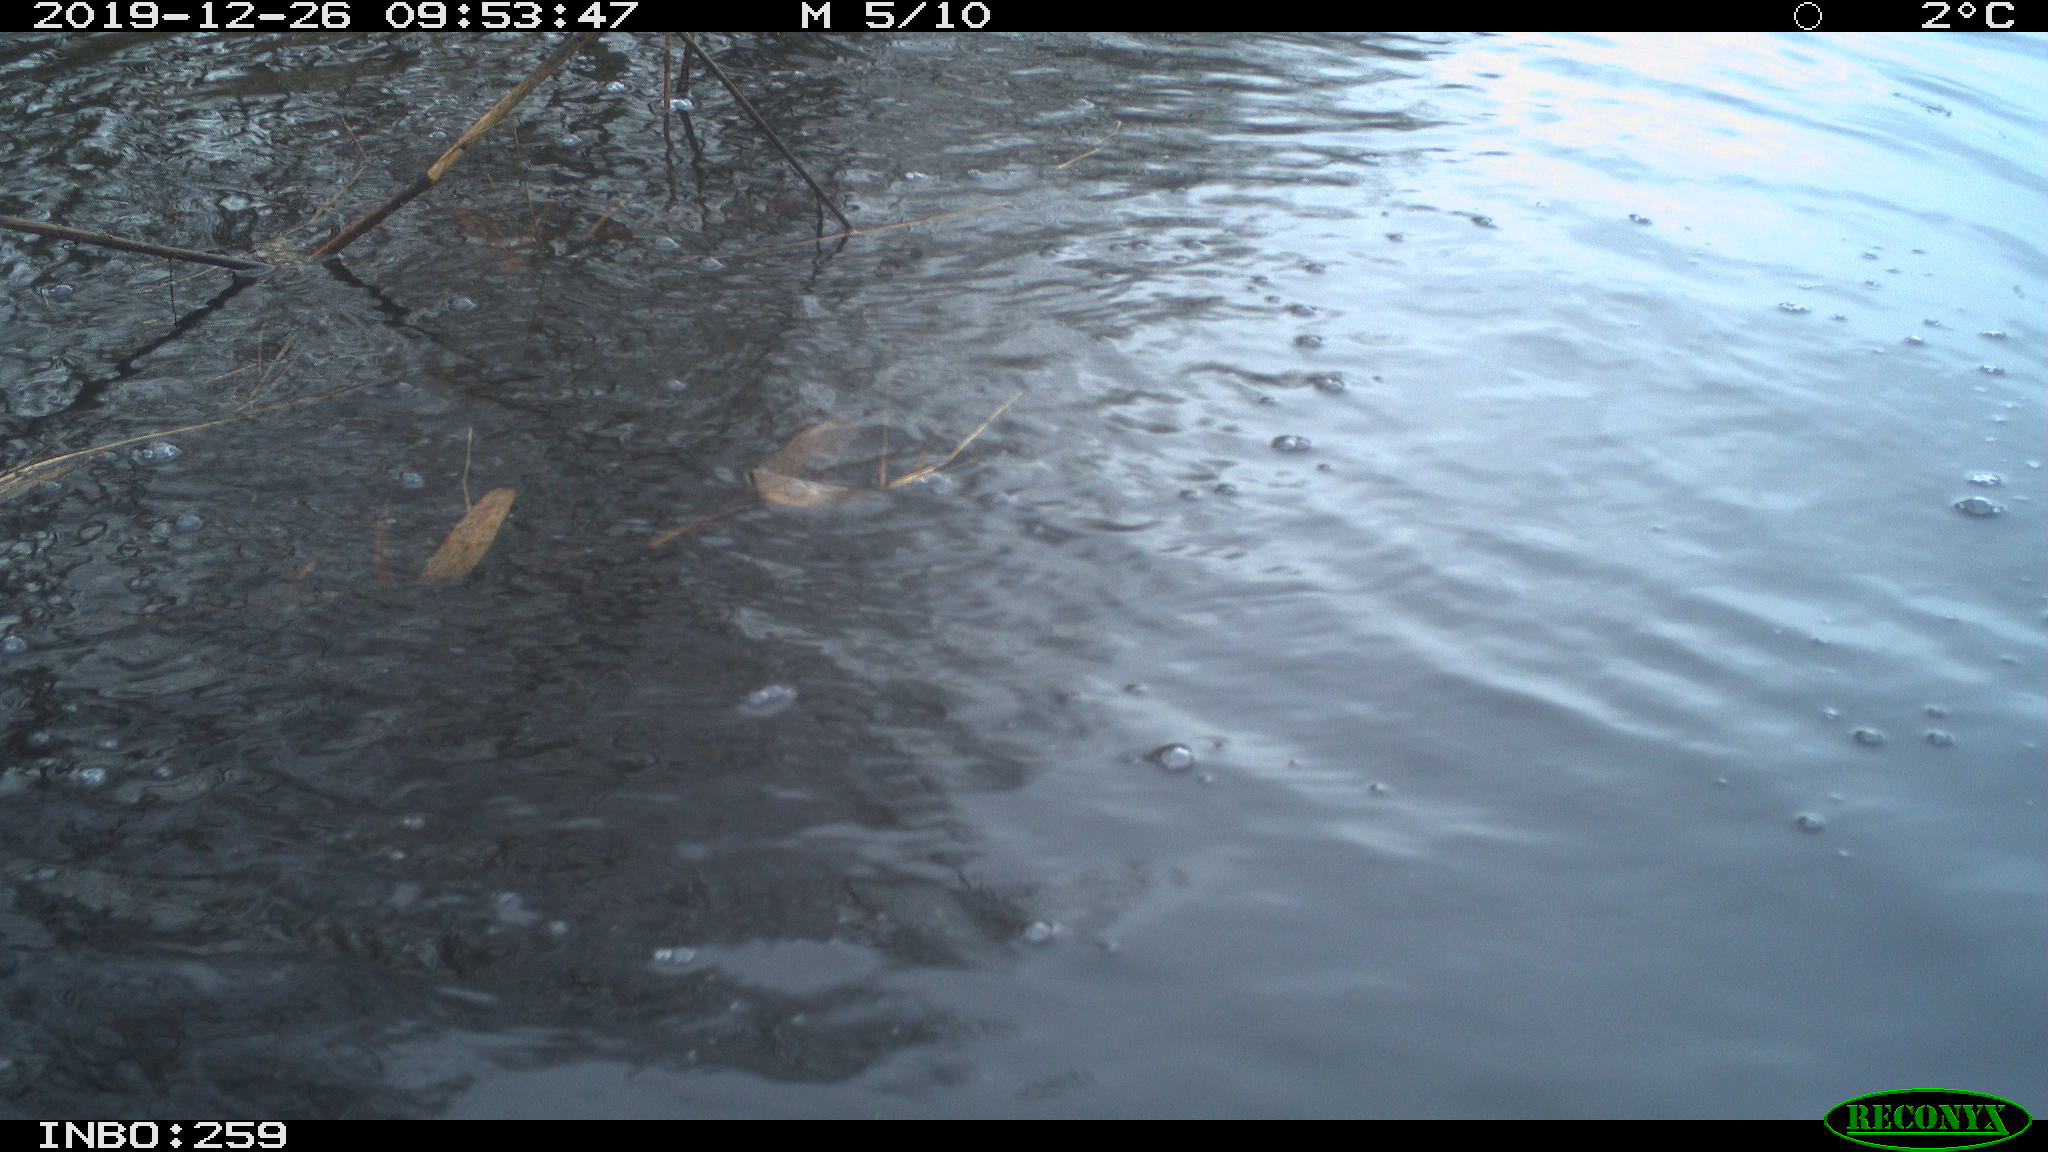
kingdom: Animalia
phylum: Chordata
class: Aves
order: Gruiformes
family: Rallidae
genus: Gallinula
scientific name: Gallinula chloropus
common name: Common moorhen
